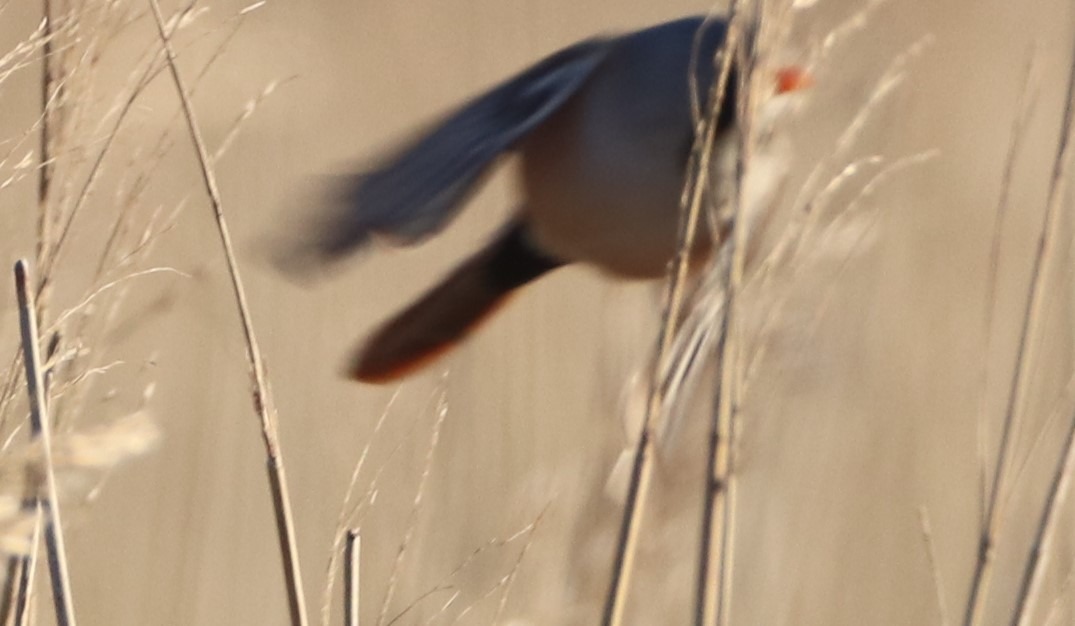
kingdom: Animalia
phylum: Chordata
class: Aves
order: Passeriformes
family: Panuridae
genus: Panurus
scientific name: Panurus biarmicus
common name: Skægmejse
